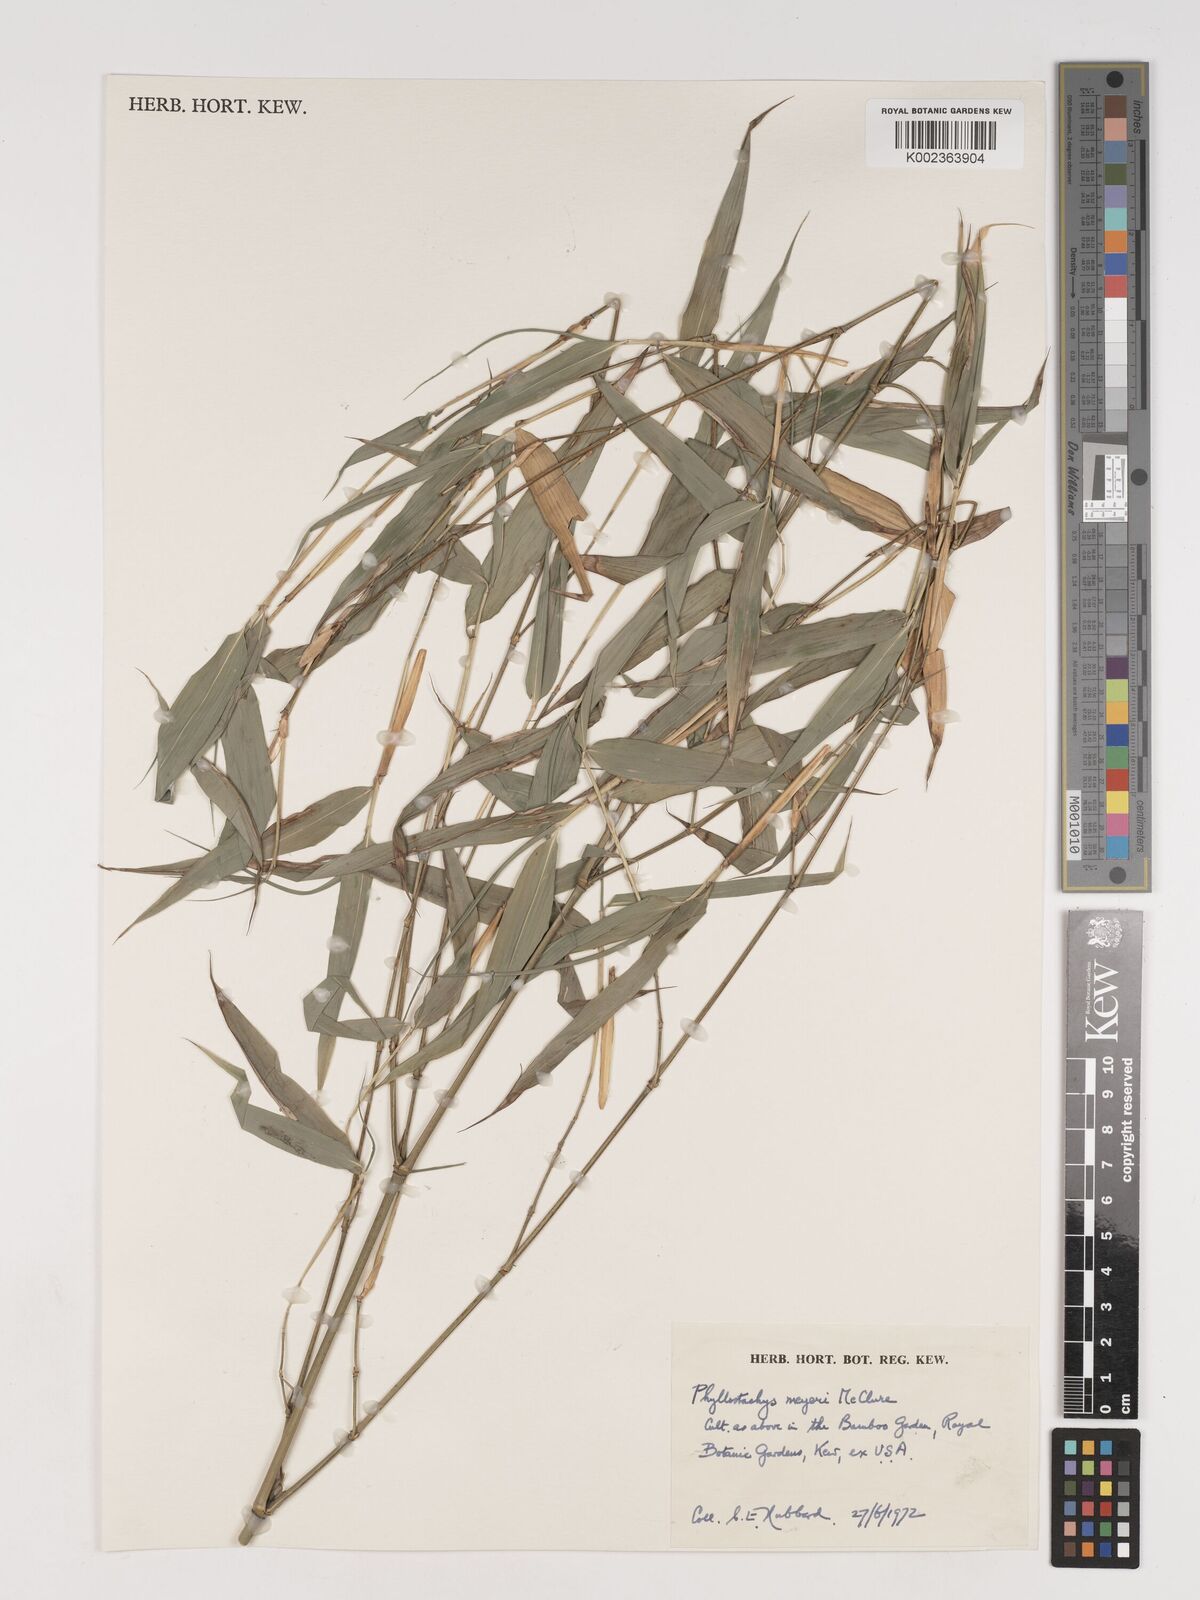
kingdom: Plantae
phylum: Tracheophyta
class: Liliopsida
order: Poales
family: Poaceae
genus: Phyllostachys
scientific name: Phyllostachys meyeri
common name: Meyer's bamboo
